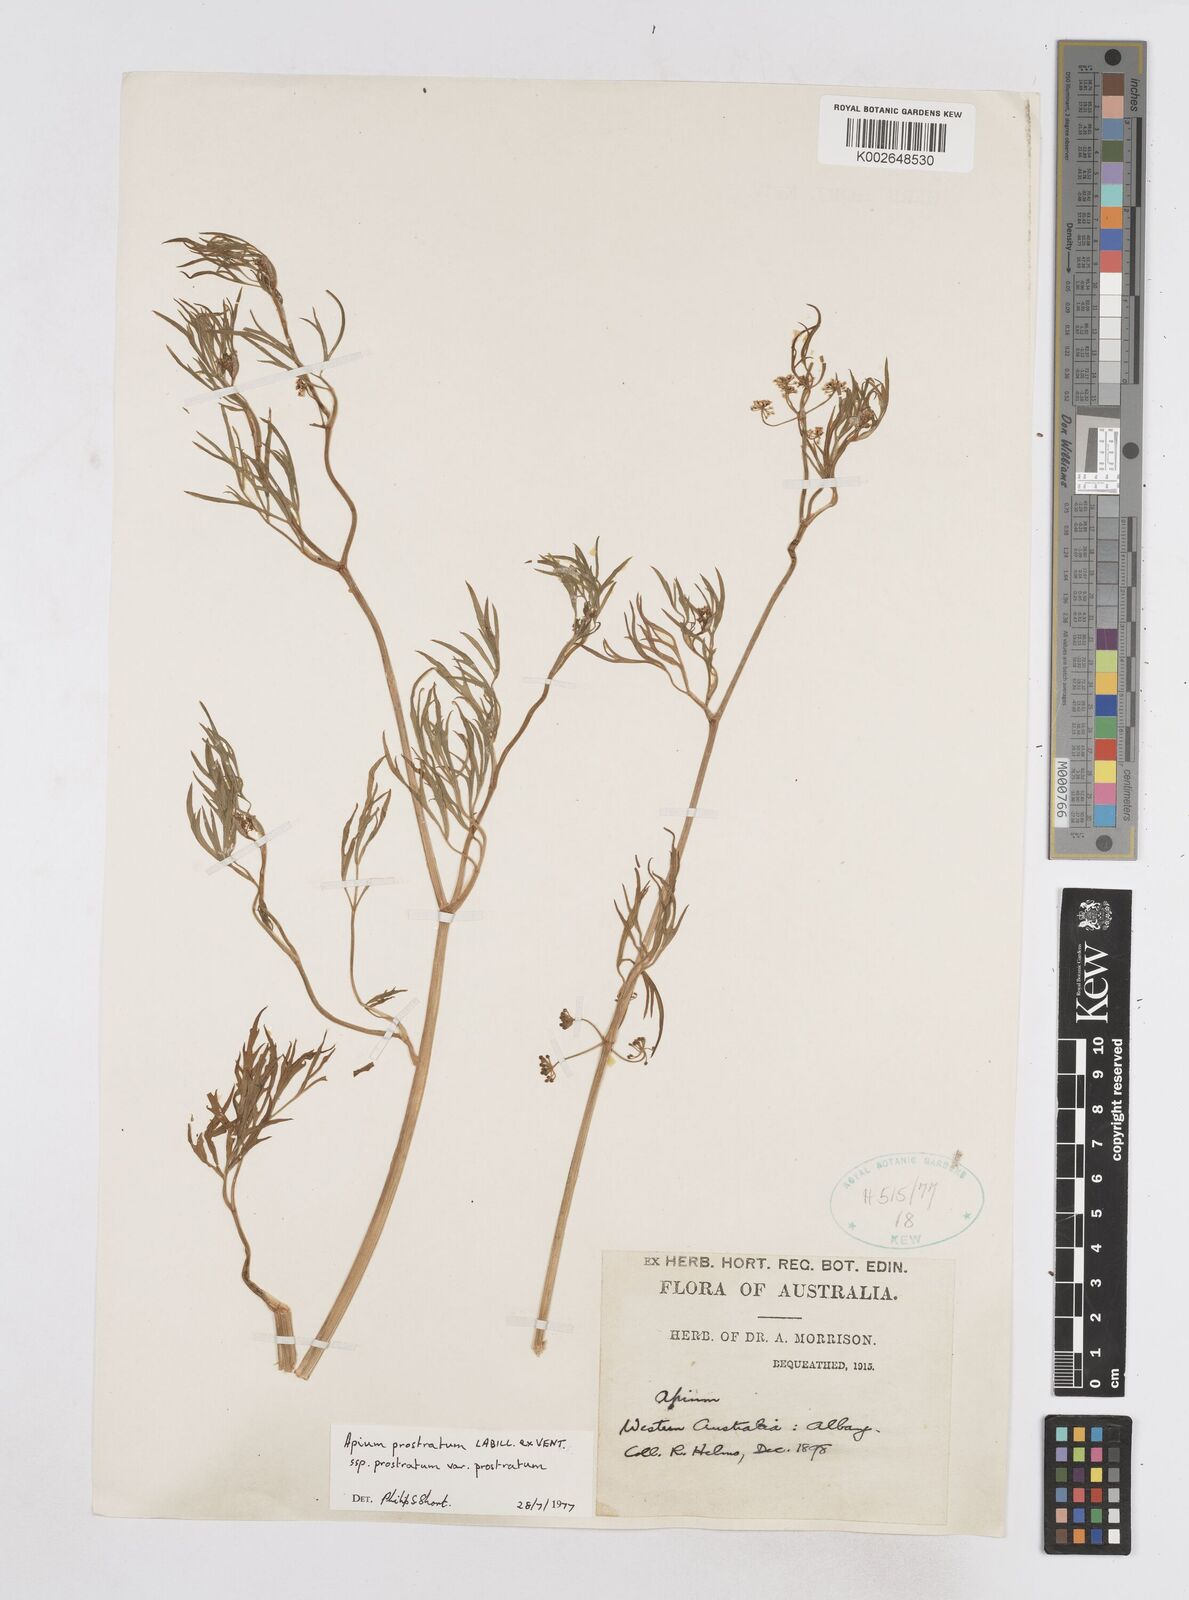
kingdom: Plantae
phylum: Tracheophyta
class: Magnoliopsida
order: Apiales
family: Apiaceae
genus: Apium
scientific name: Apium prostratum
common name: Prostrate marshwort
